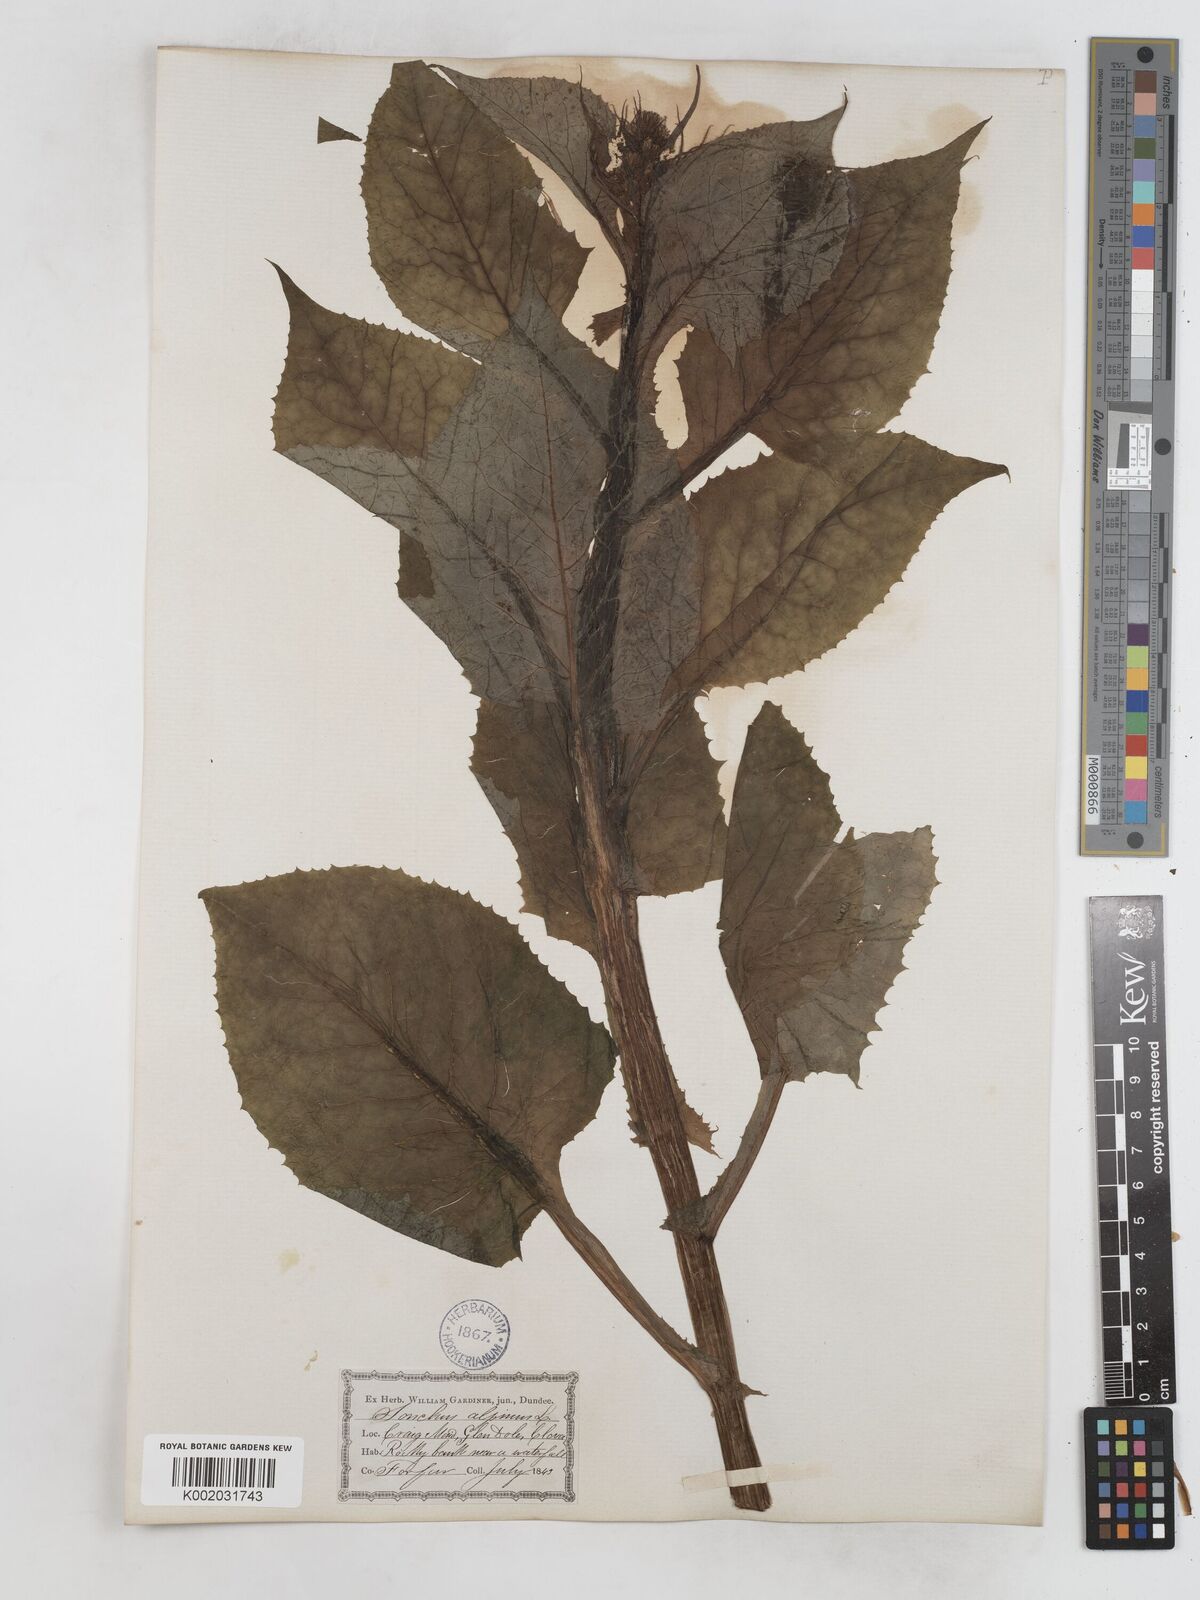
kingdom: Plantae
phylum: Tracheophyta
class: Magnoliopsida
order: Asterales
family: Asteraceae
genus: Cicerbita
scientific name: Cicerbita alpina
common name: Alpine blue-sow-thistle
